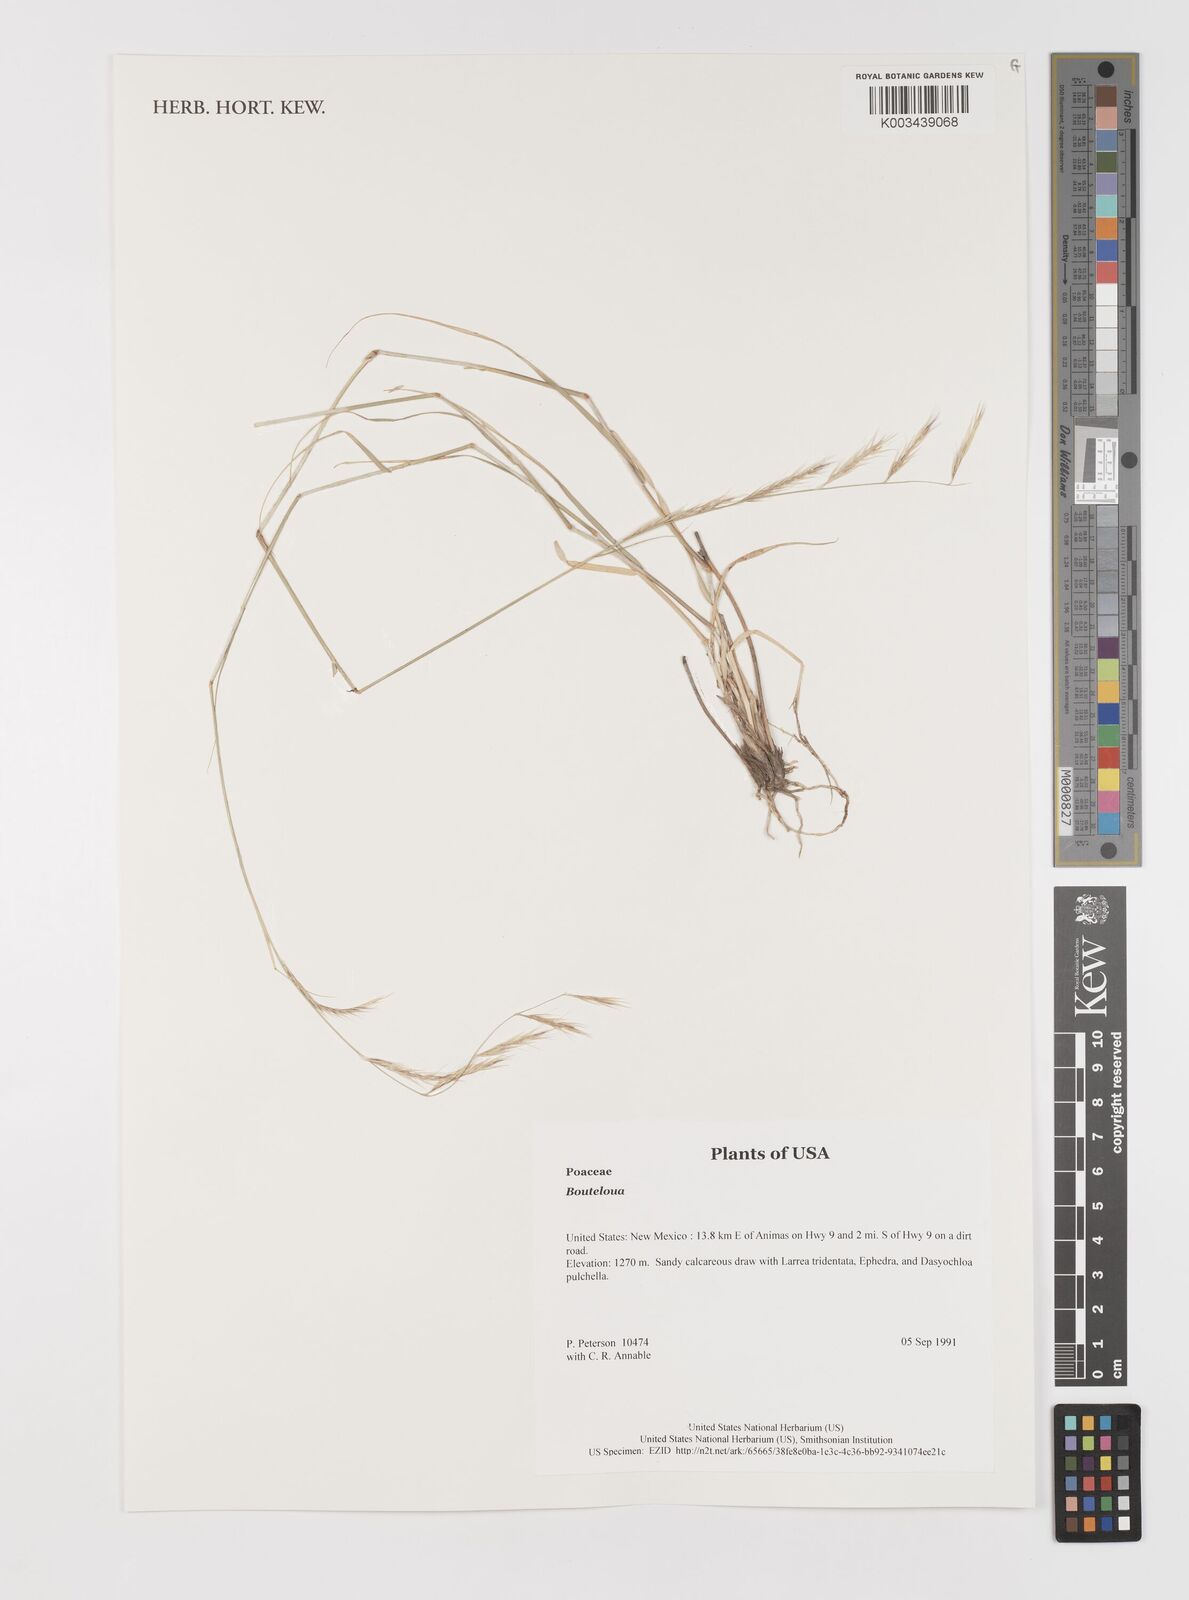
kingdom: Plantae
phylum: Tracheophyta
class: Liliopsida
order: Poales
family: Poaceae
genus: Bouteloua
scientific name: Bouteloua
